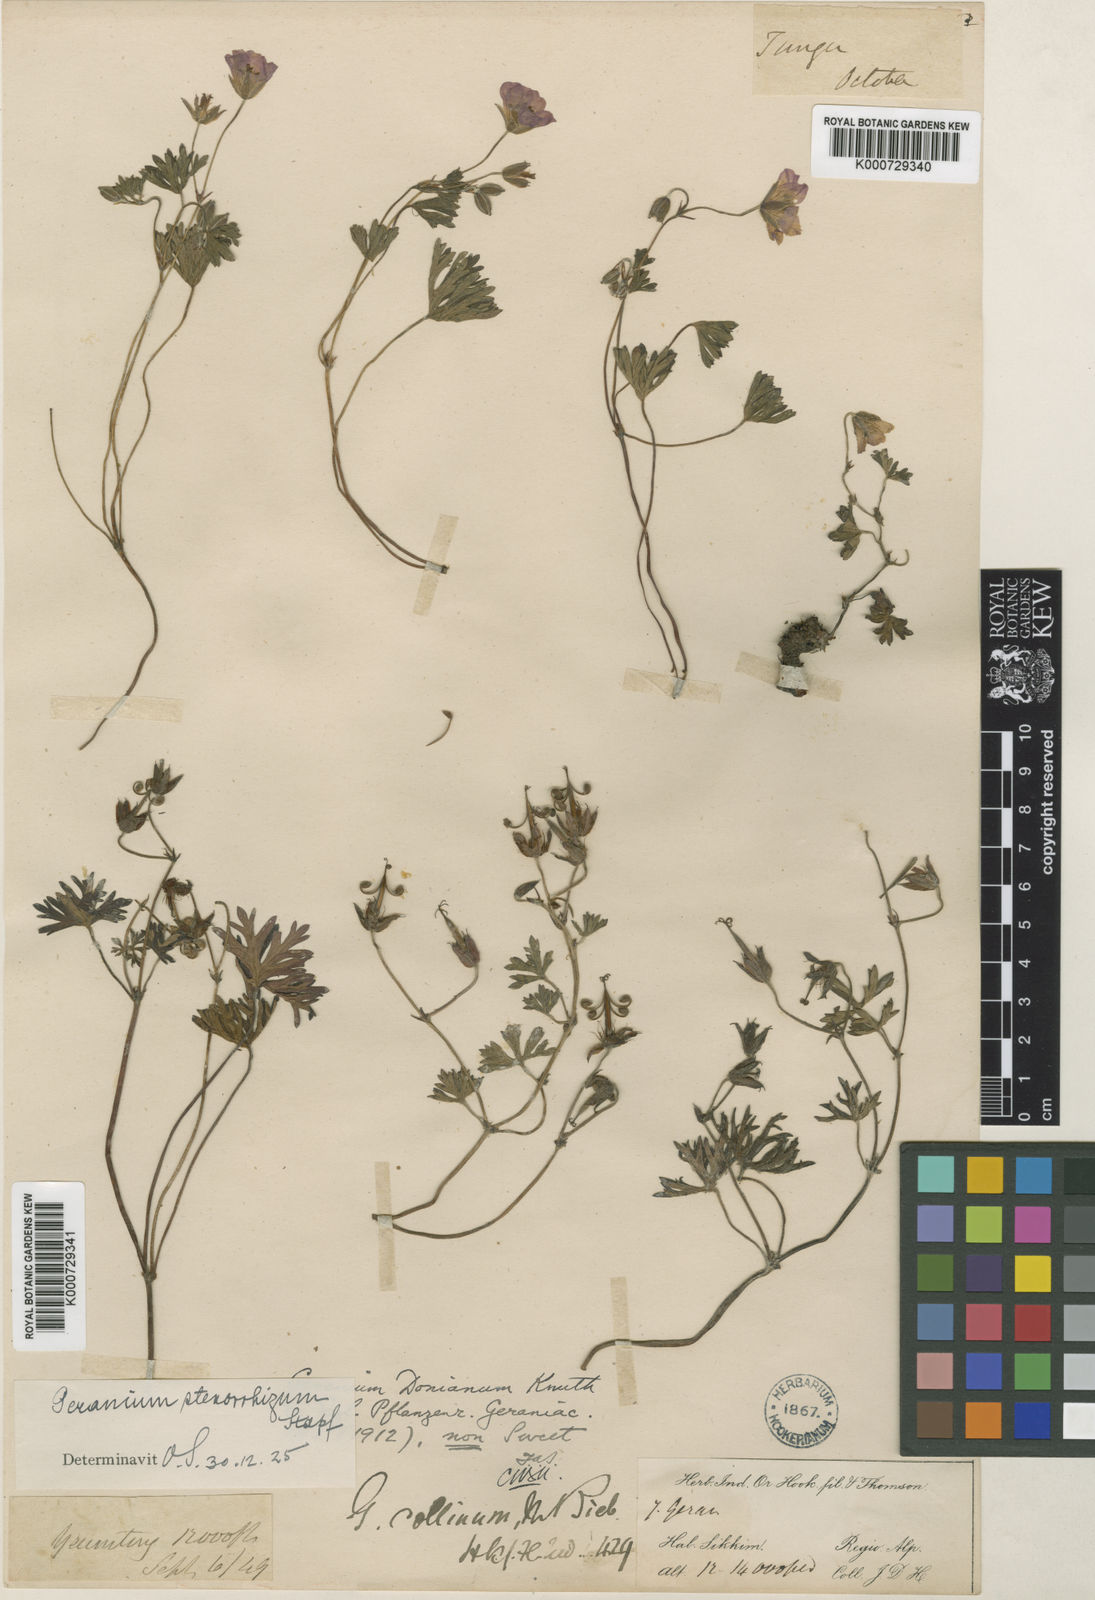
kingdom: Plantae
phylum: Tracheophyta
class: Magnoliopsida
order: Geraniales
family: Geraniaceae
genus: Geranium
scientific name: Geranium donianum
